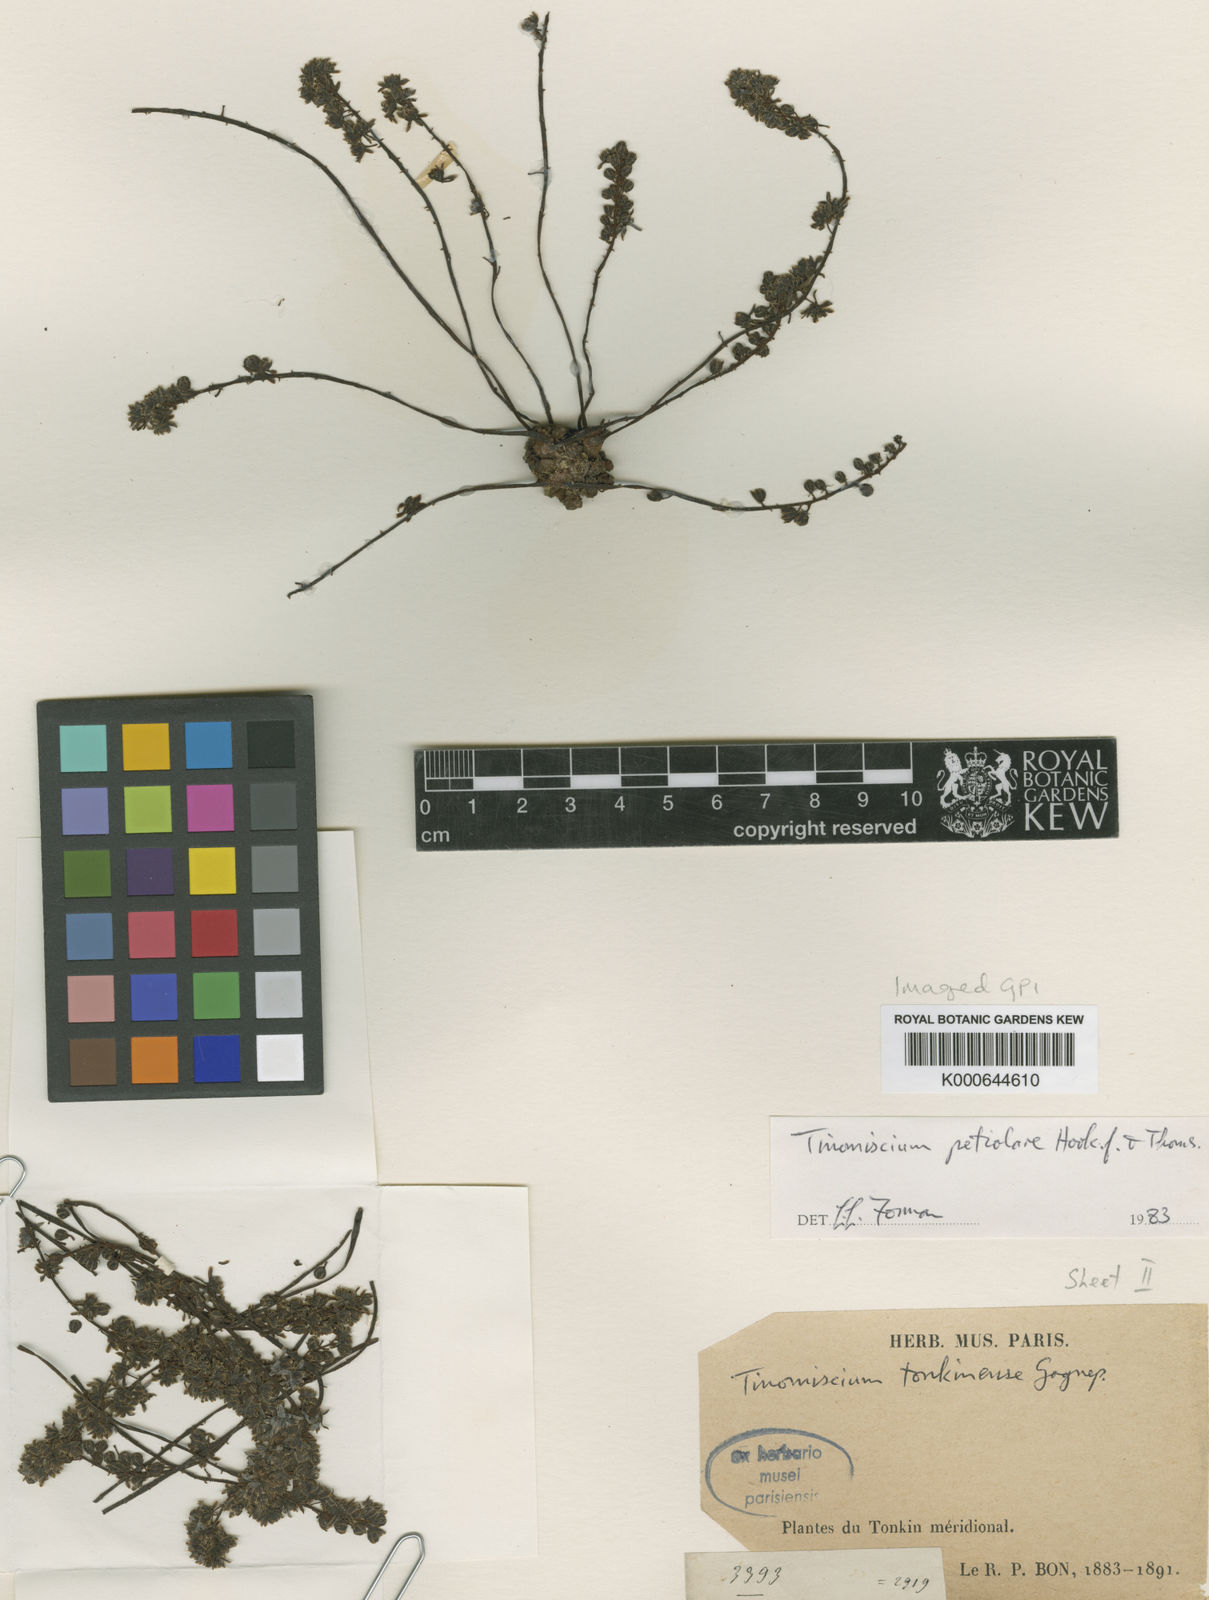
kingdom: Plantae
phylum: Tracheophyta
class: Magnoliopsida
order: Ranunculales
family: Menispermaceae
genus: Tinomiscium
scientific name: Tinomiscium petiolare
